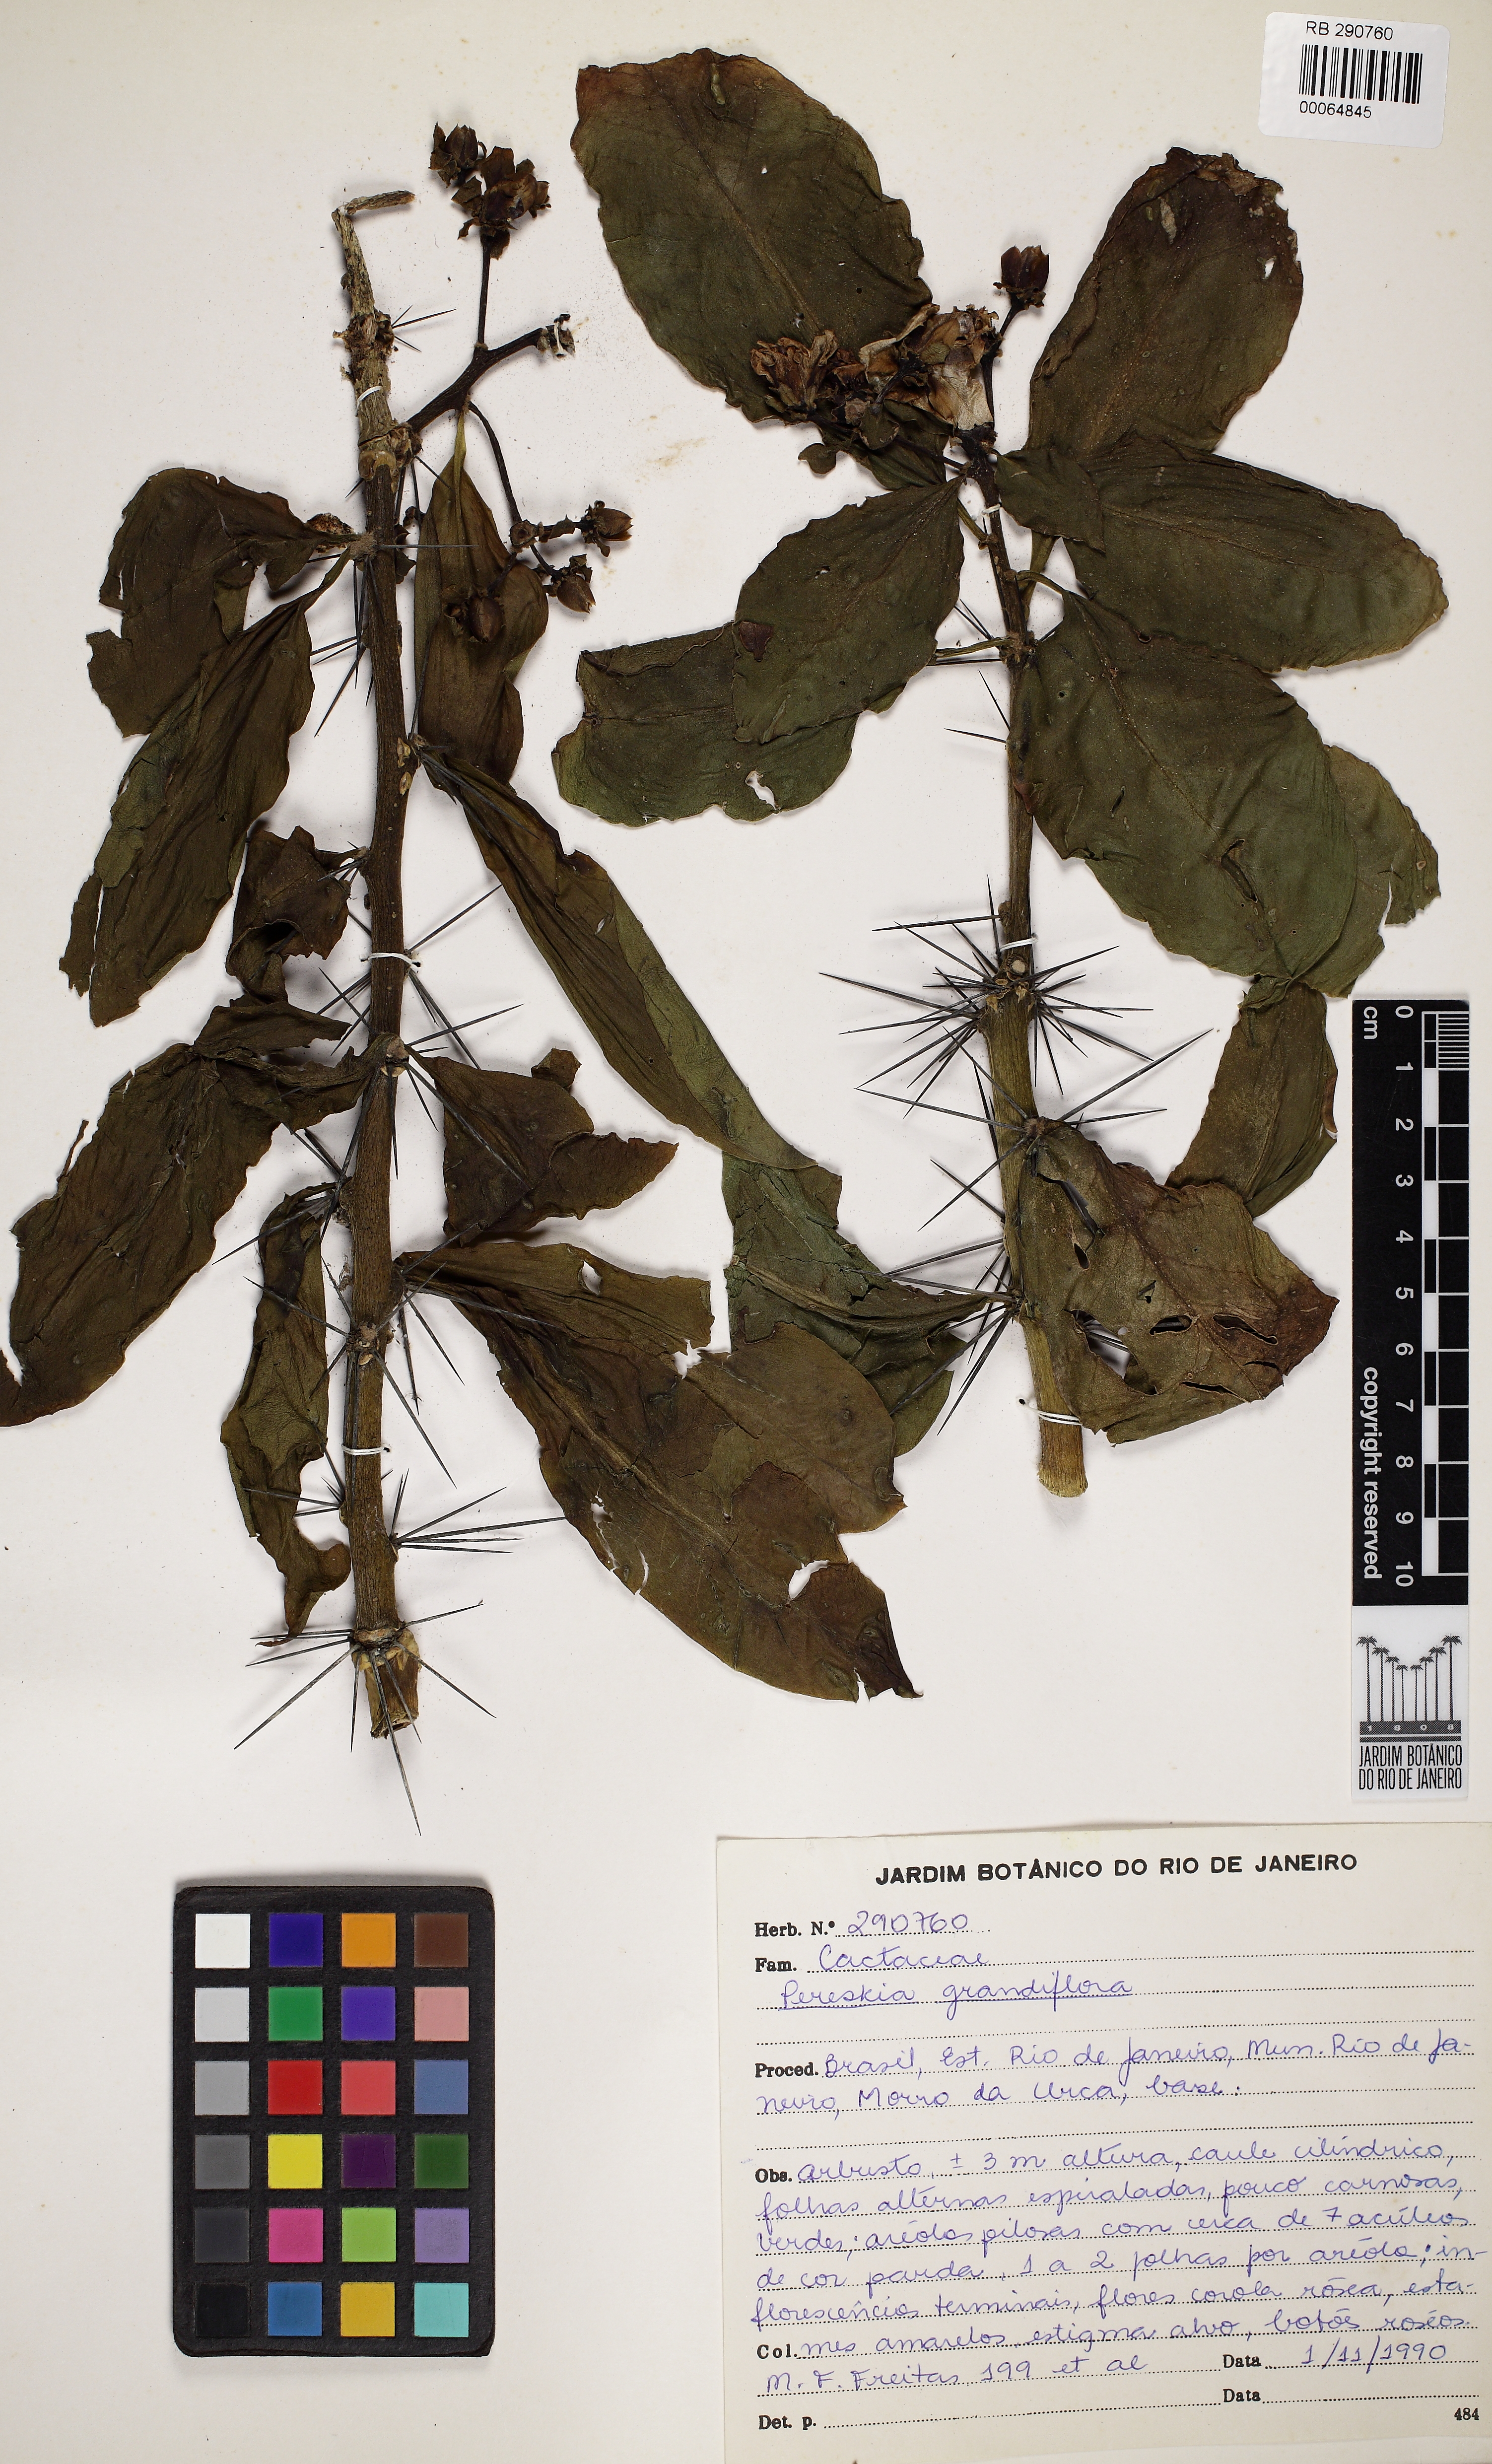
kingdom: Plantae
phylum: Tracheophyta
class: Magnoliopsida
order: Caryophyllales
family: Cactaceae
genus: Pereskia
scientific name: Pereskia grandifolia
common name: Rose cactus
